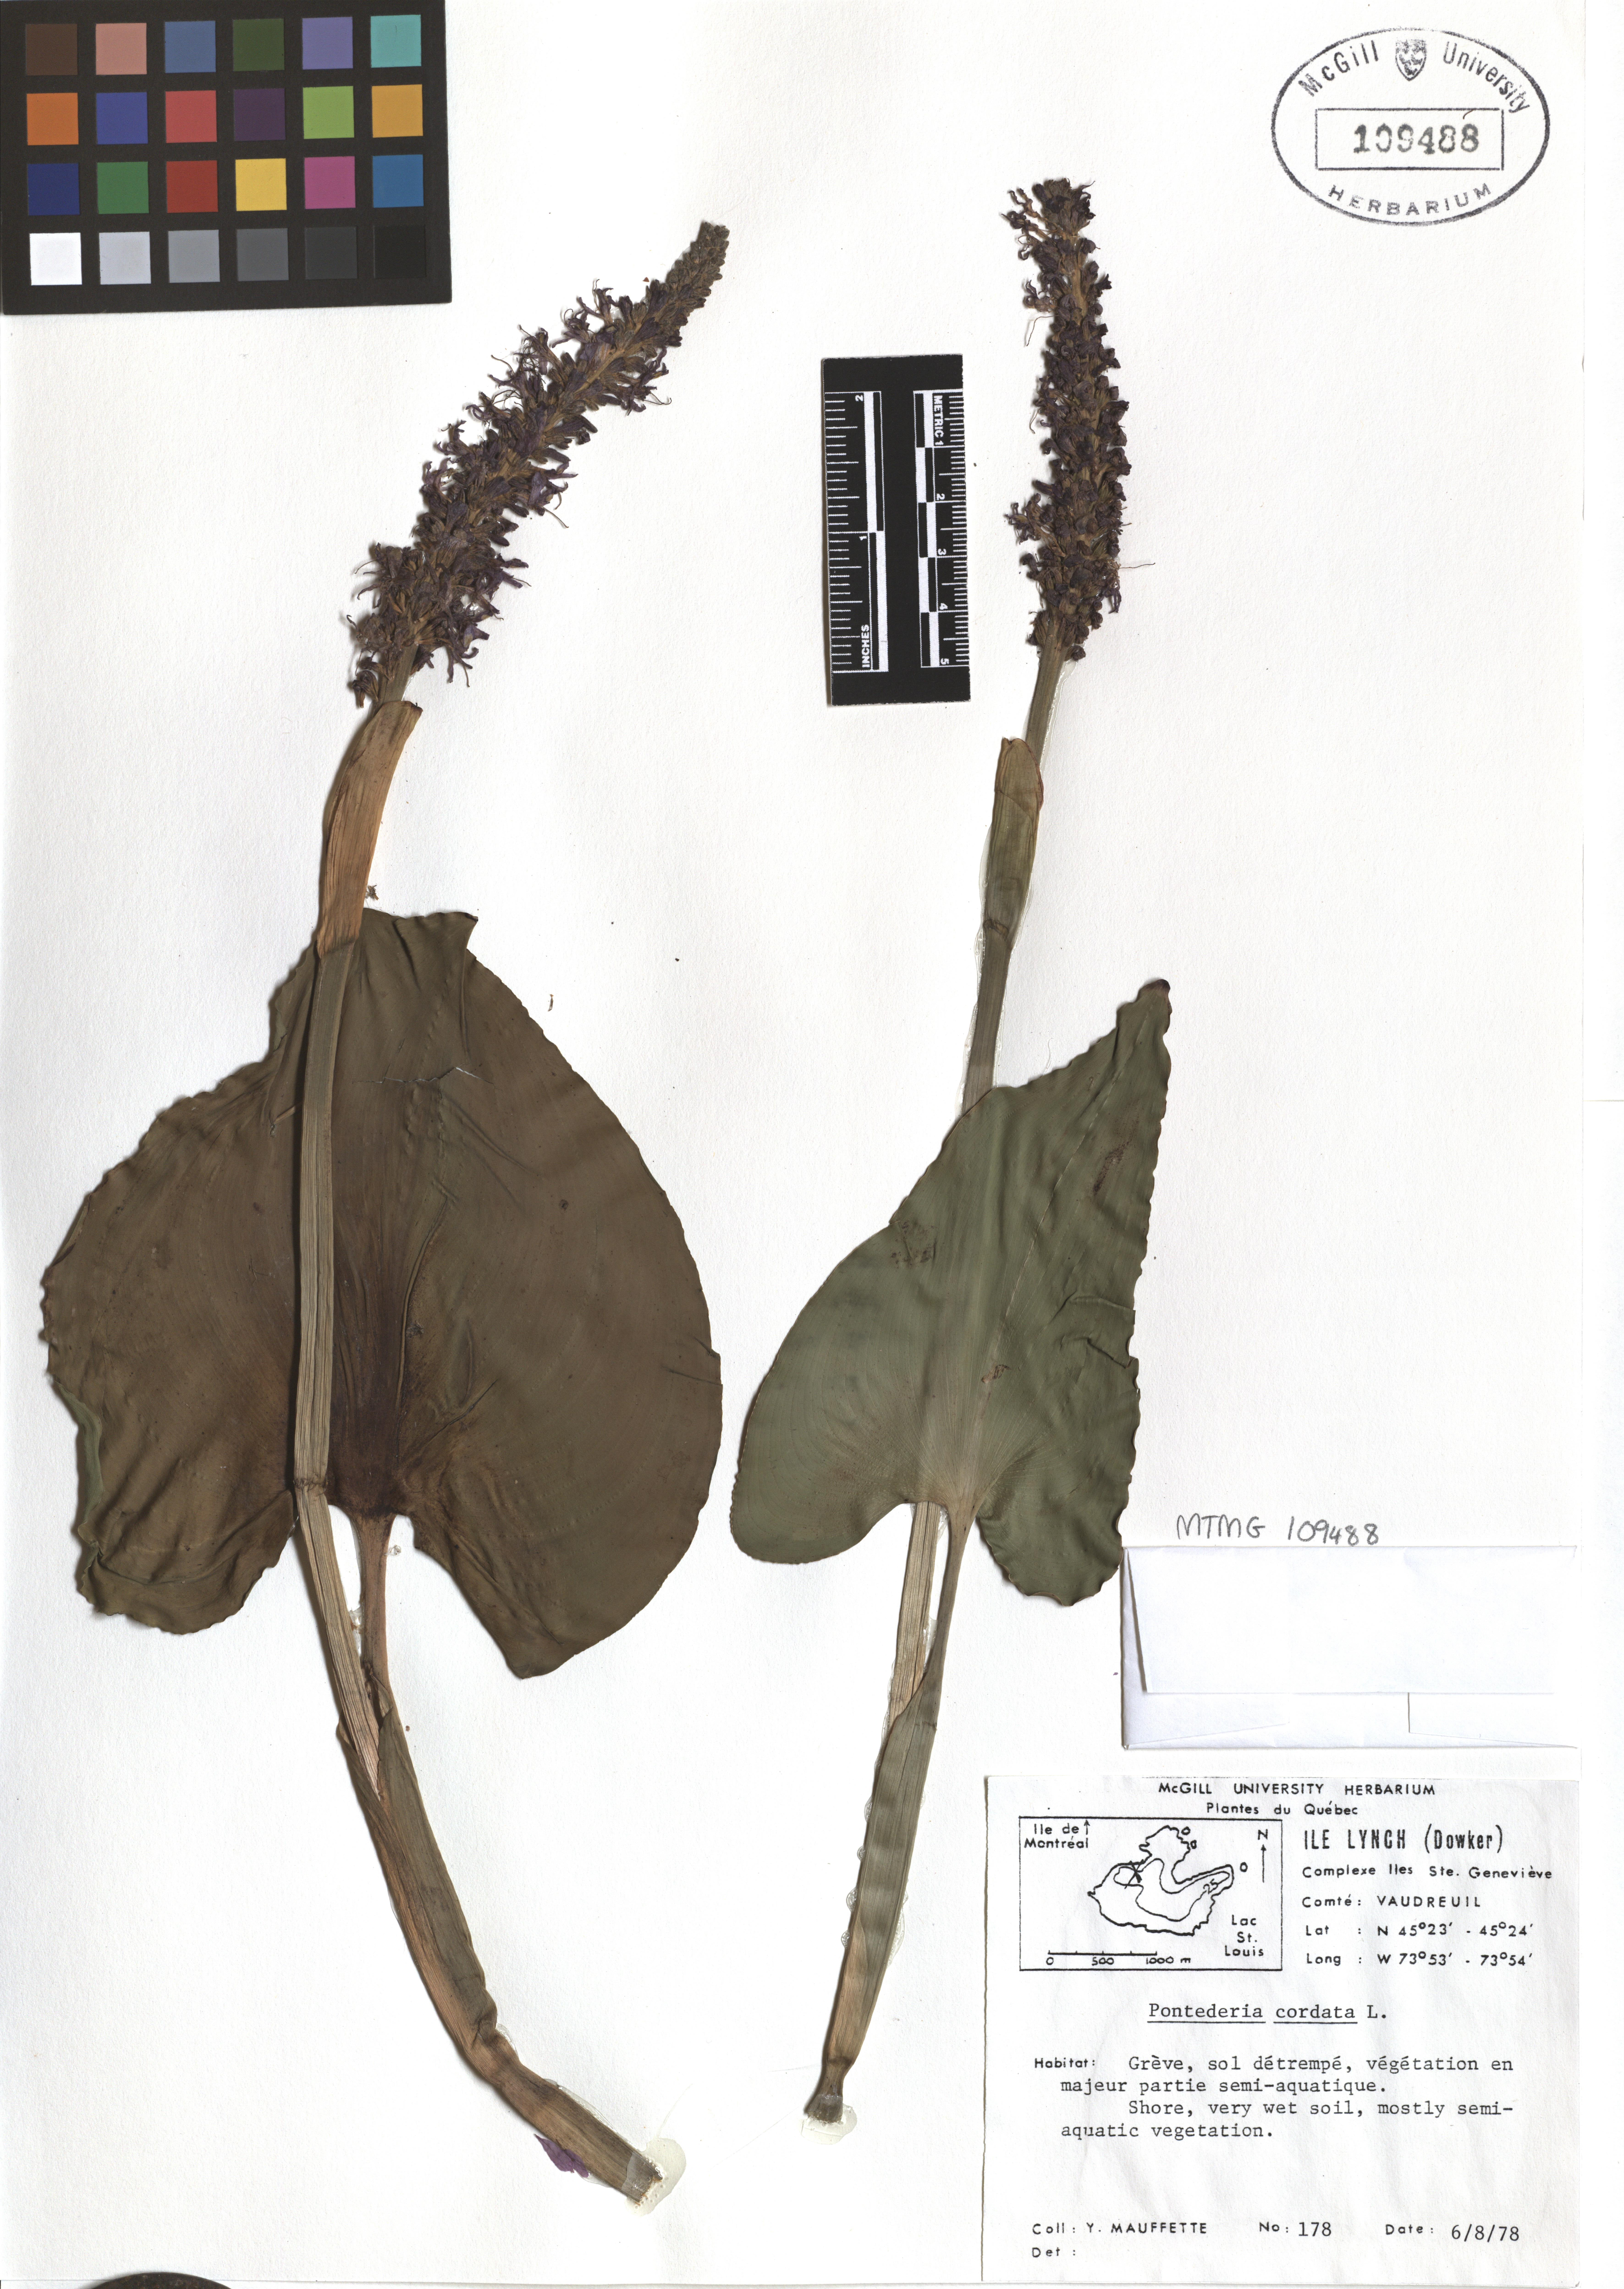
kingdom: Plantae
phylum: Tracheophyta
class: Liliopsida
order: Commelinales
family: Pontederiaceae
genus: Pontederia
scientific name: Pontederia cordata
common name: Pickerelweed
